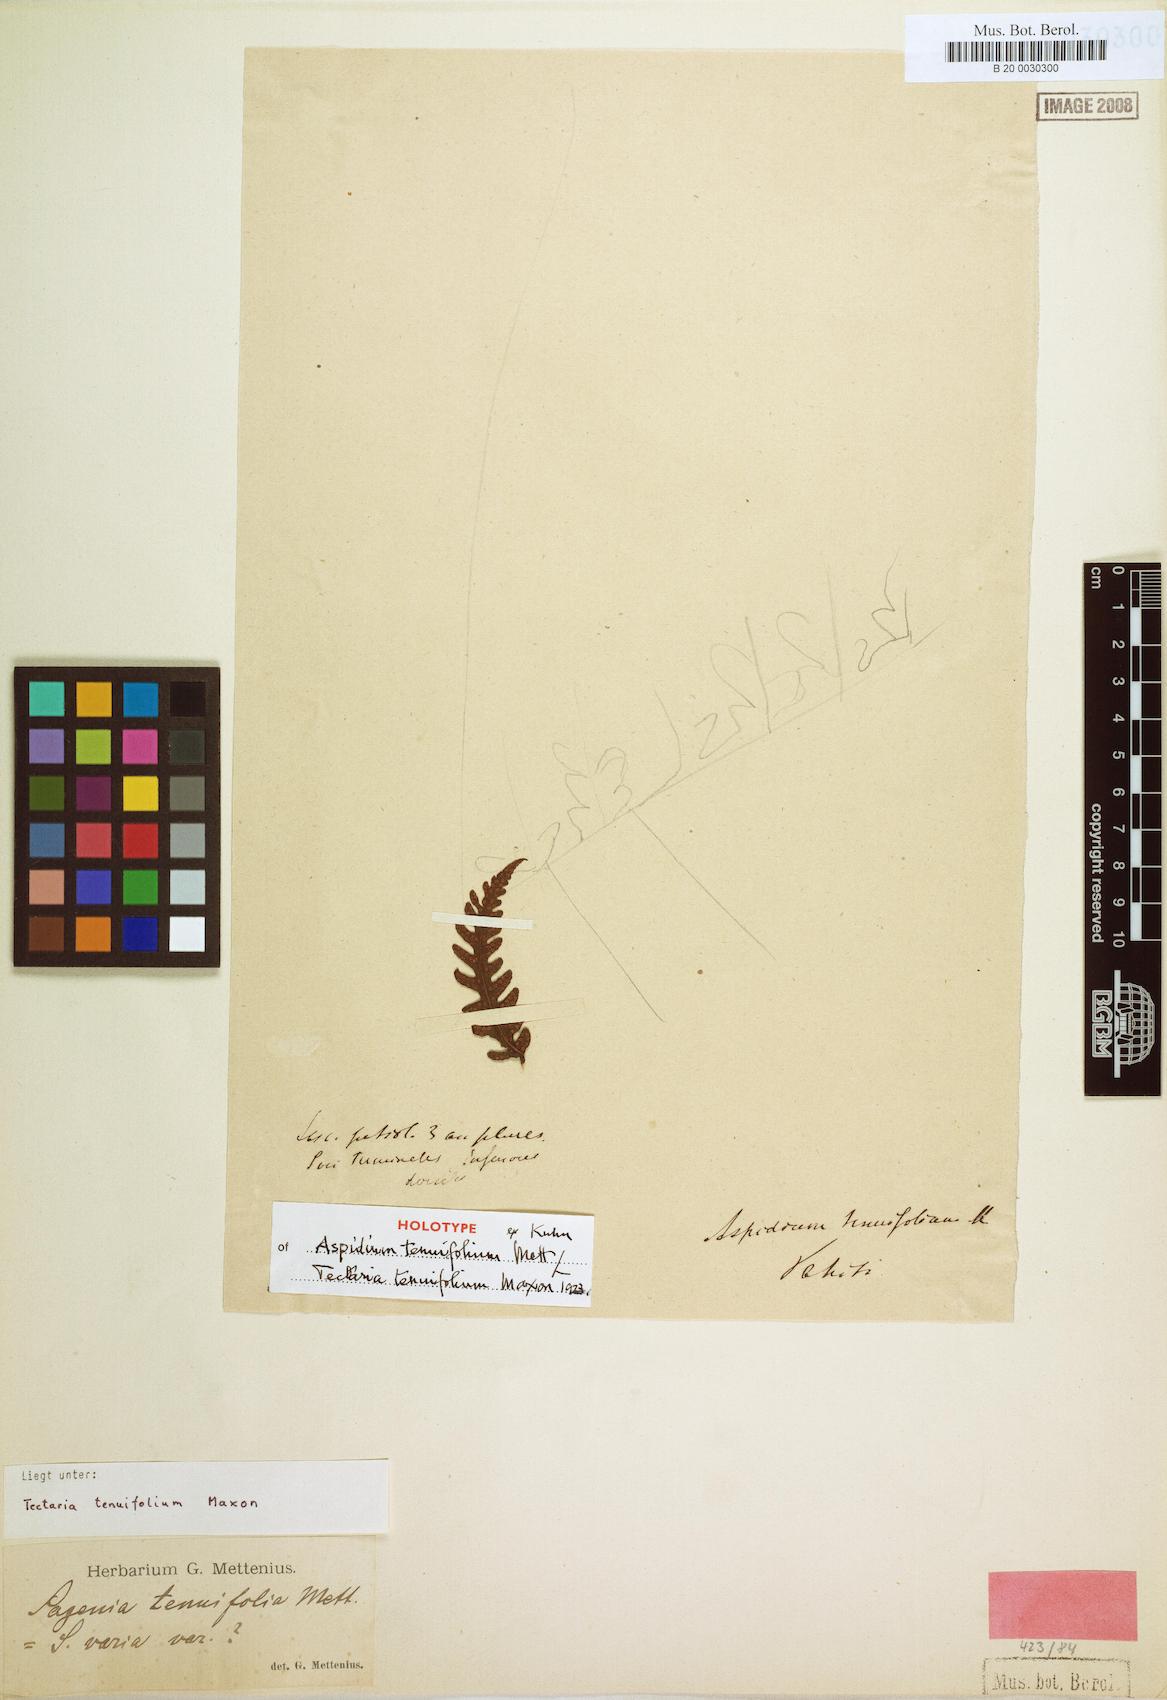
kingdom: Plantae
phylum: Tracheophyta
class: Polypodiopsida
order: Polypodiales
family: Tectariaceae
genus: Tectaria
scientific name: Tectaria
